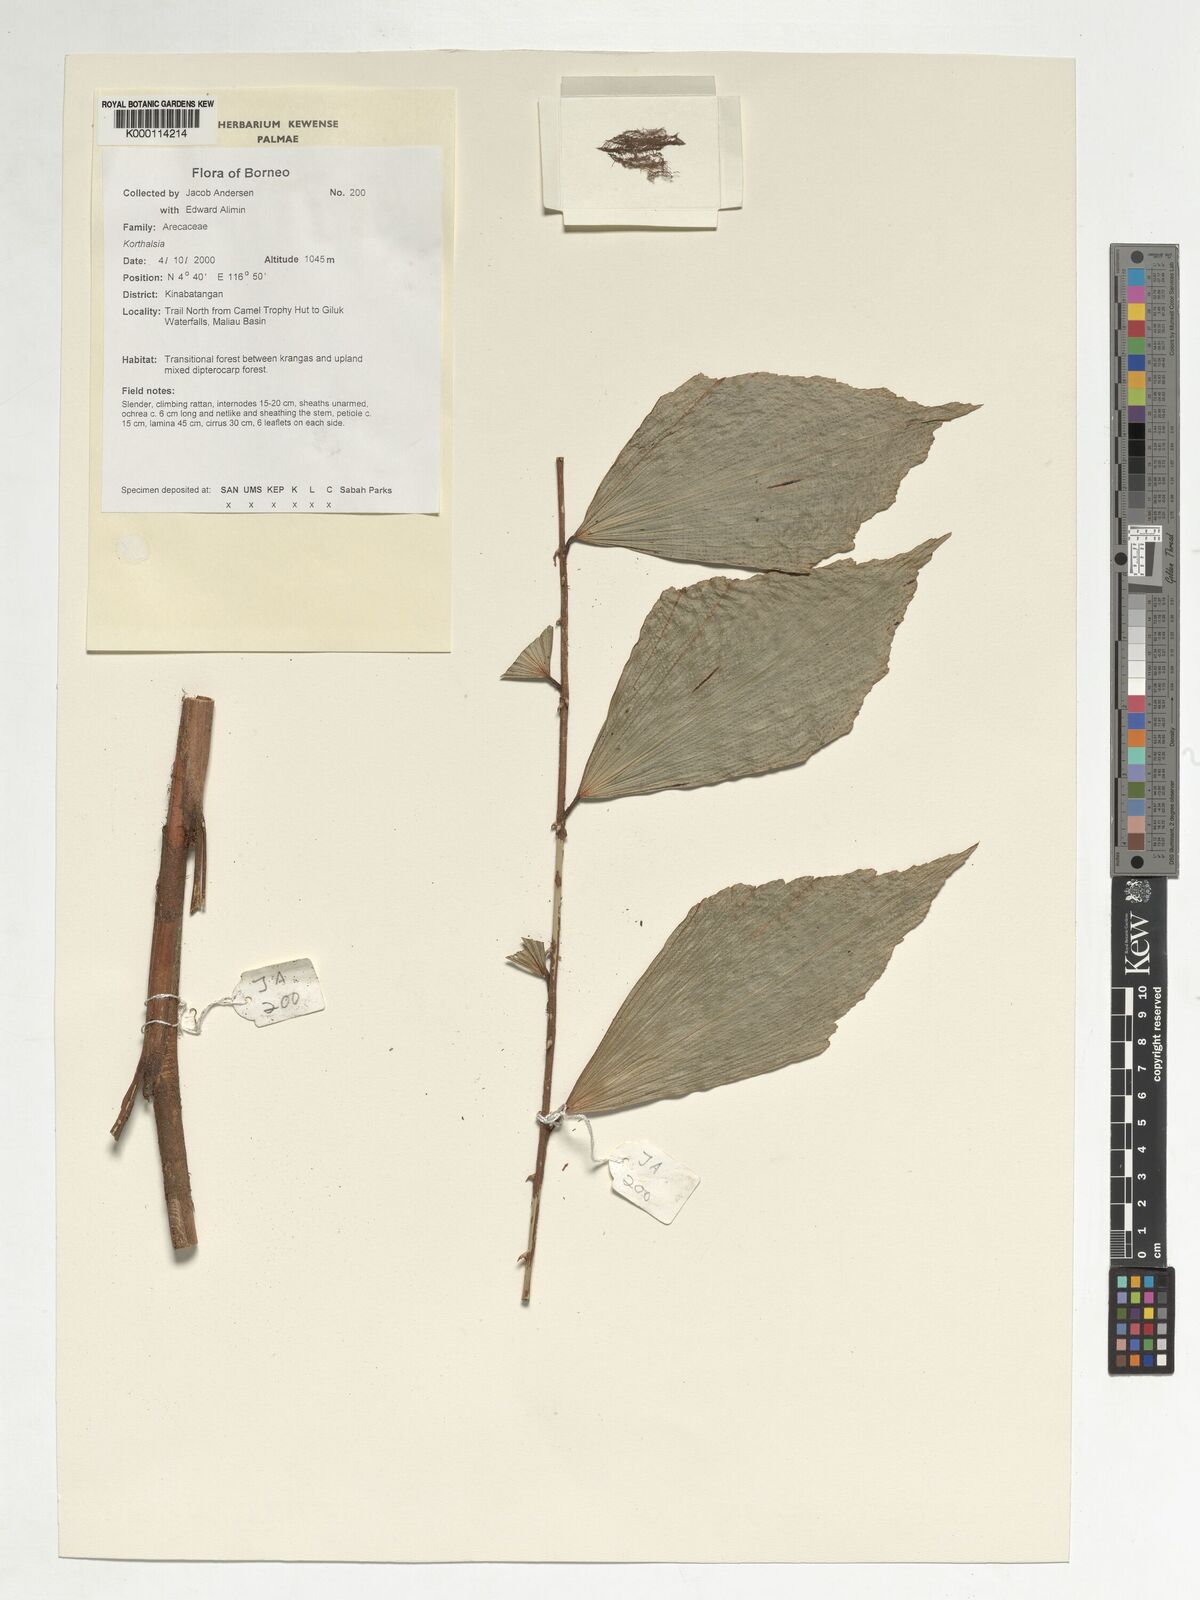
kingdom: Plantae
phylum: Tracheophyta
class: Liliopsida
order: Arecales
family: Arecaceae
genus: Korthalsia
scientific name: Korthalsia
